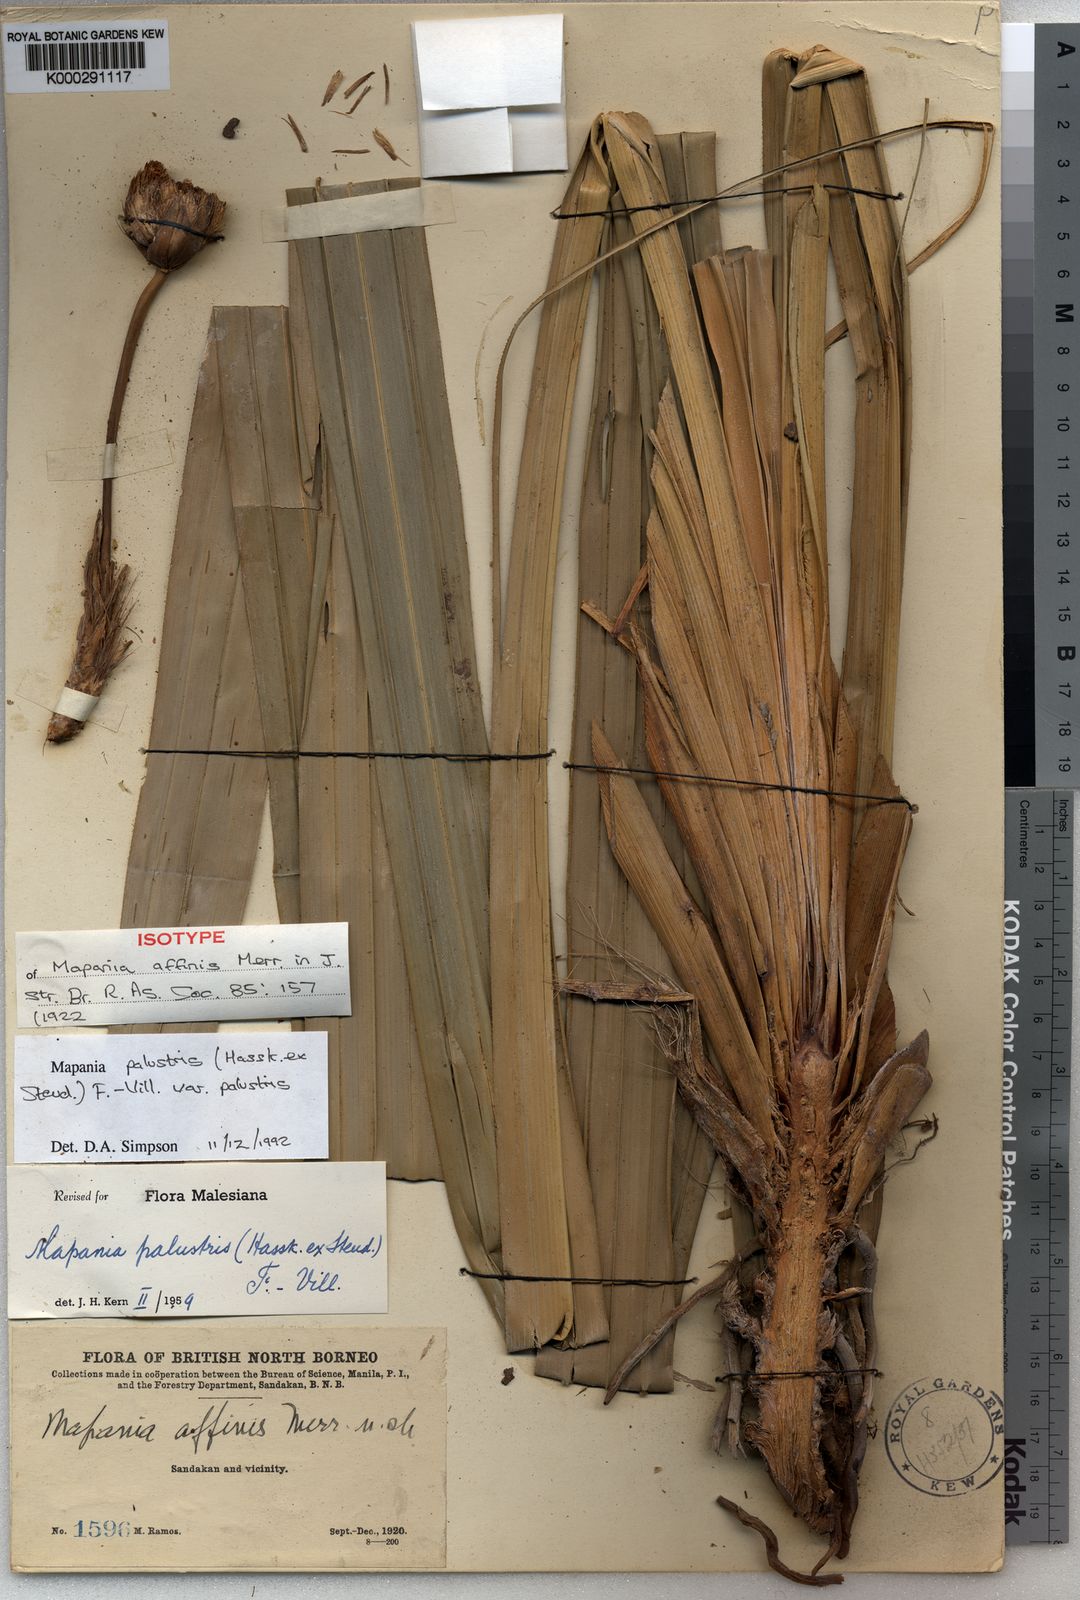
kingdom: Plantae
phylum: Tracheophyta
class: Liliopsida
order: Poales
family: Cyperaceae
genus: Mapania
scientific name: Mapania palustris
